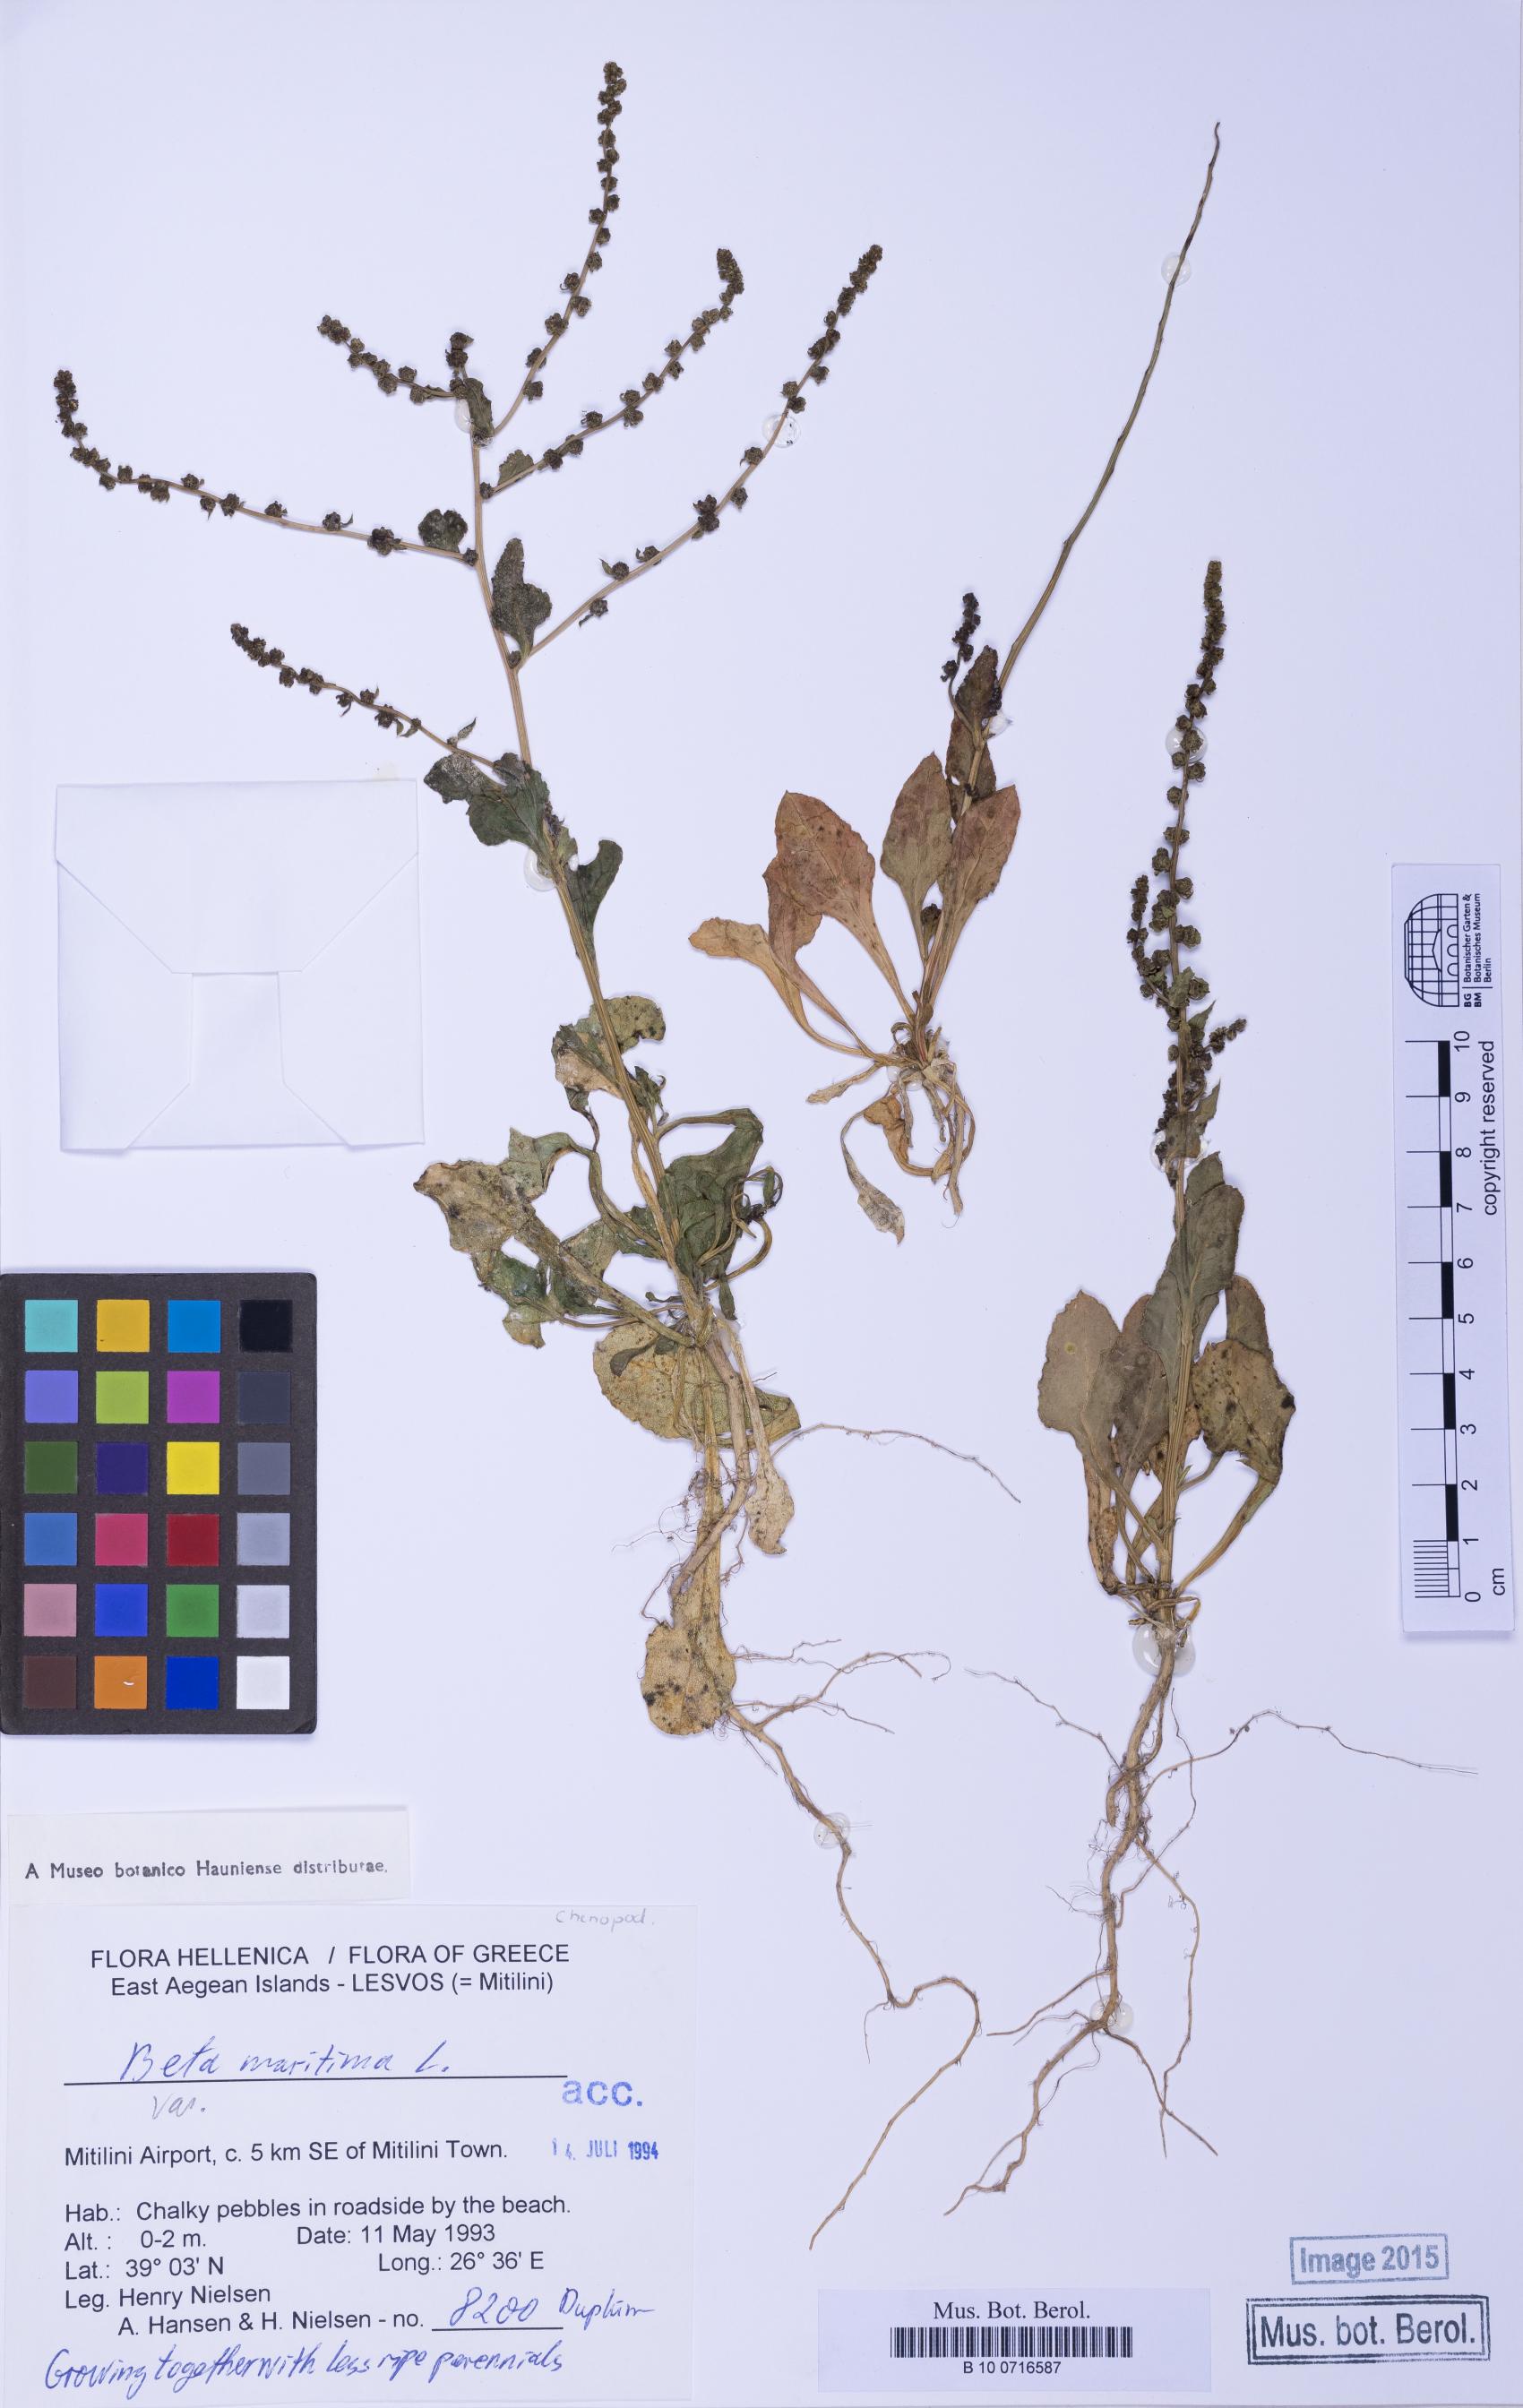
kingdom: Plantae
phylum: Tracheophyta
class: Magnoliopsida
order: Caryophyllales
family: Amaranthaceae
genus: Beta
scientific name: Beta adanensis
